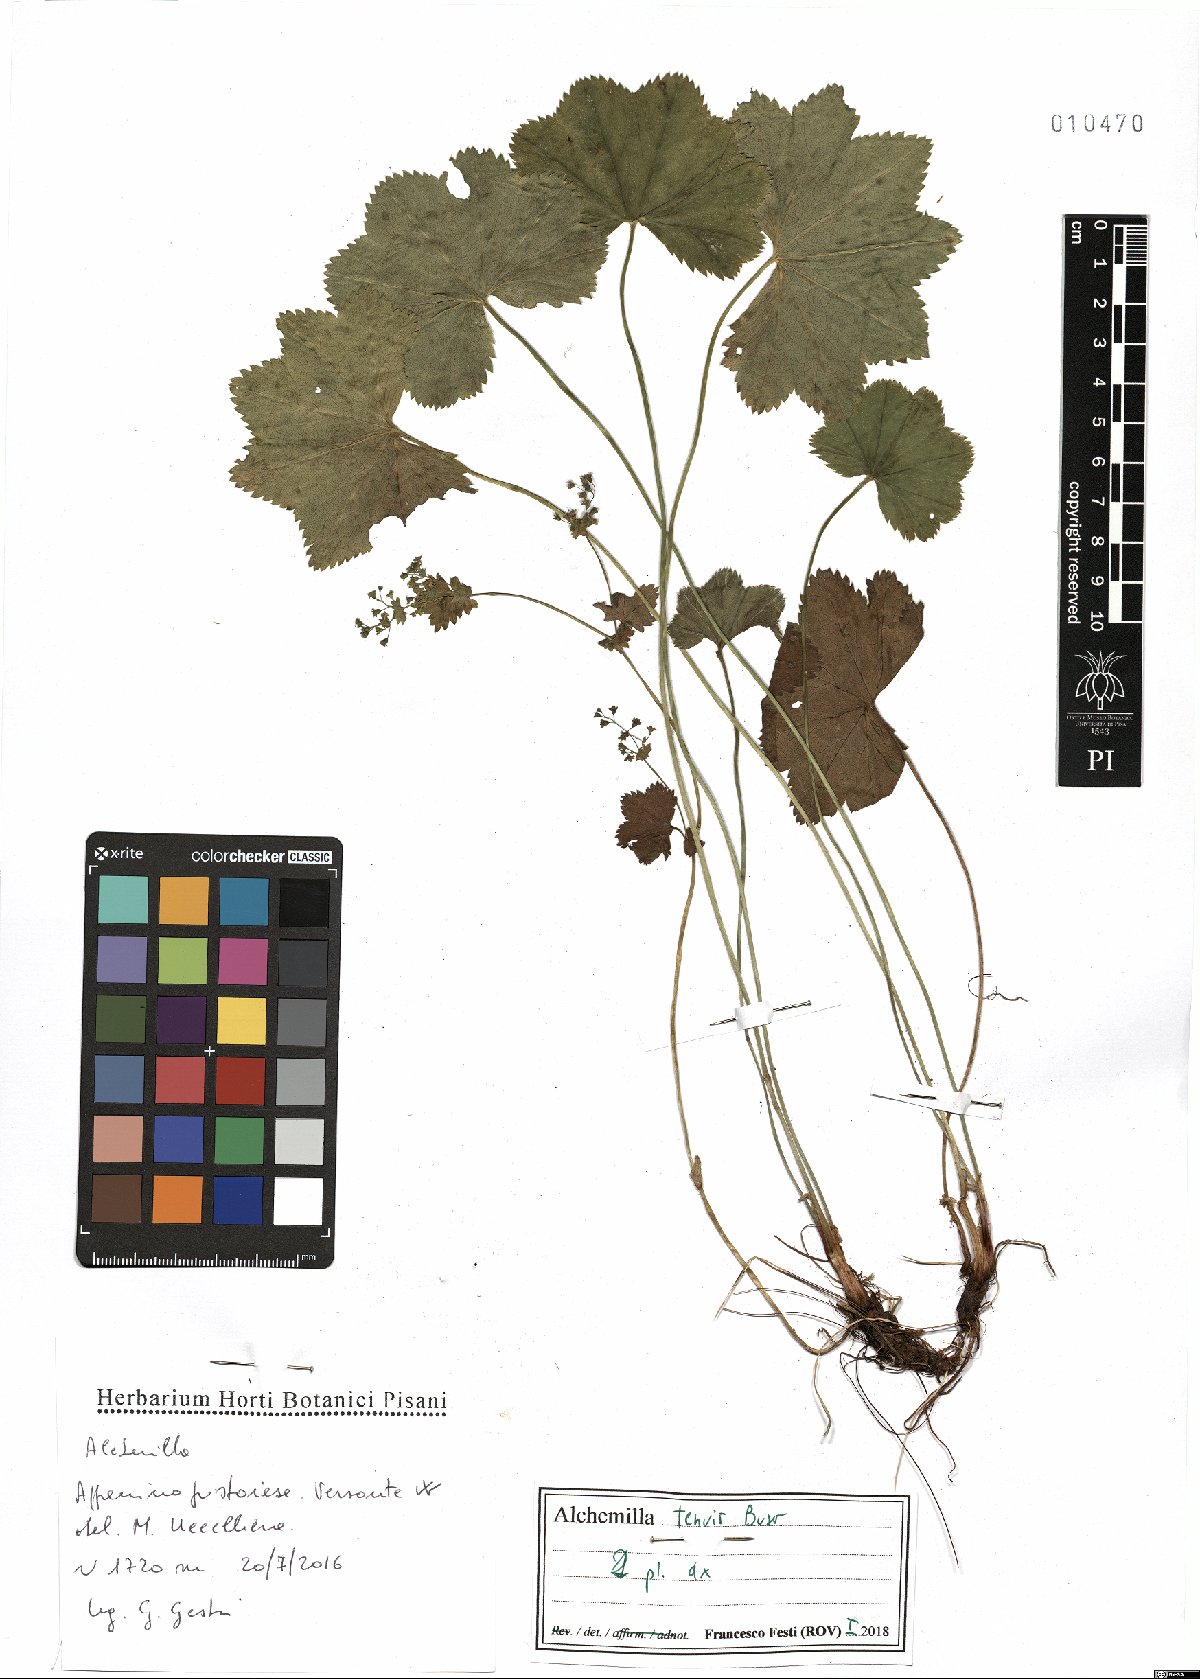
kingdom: Plantae
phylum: Tracheophyta
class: Magnoliopsida
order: Rosales
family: Rosaceae
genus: Alchemilla
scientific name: Alchemilla tenuis
